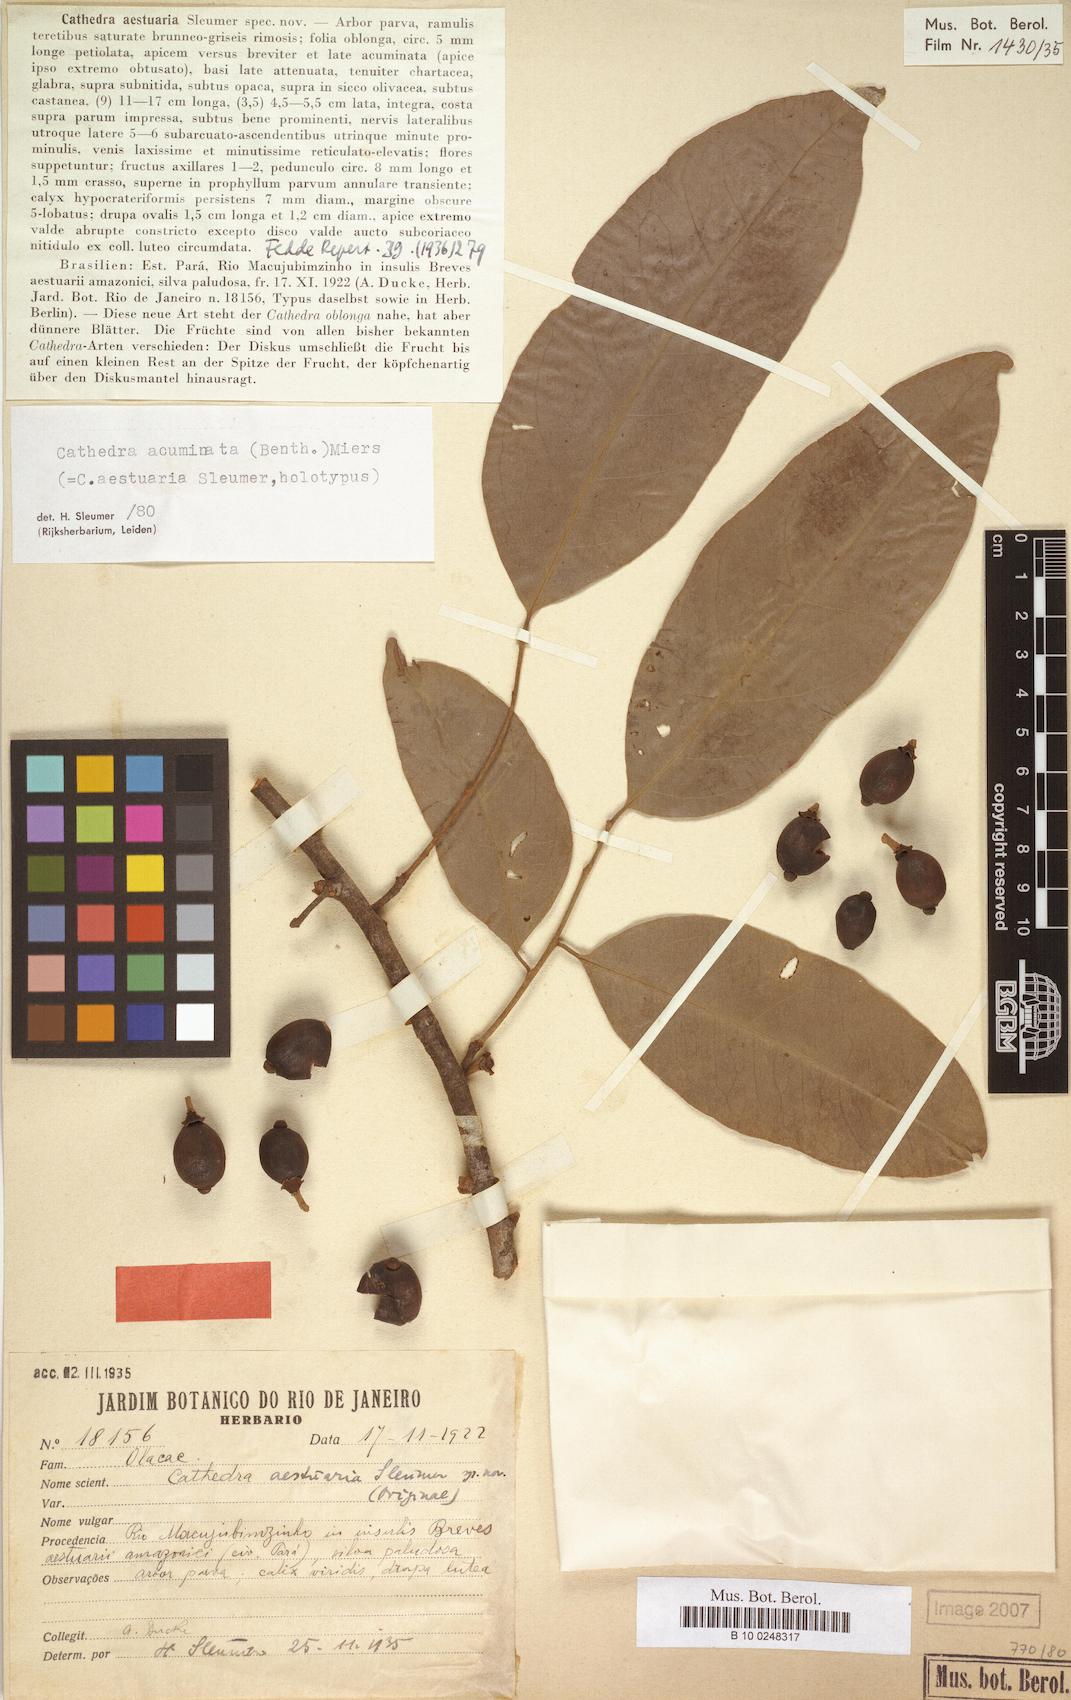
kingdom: Plantae
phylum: Tracheophyta
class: Magnoliopsida
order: Santalales
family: Aptandraceae
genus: Cathedra
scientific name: Cathedra acuminata
